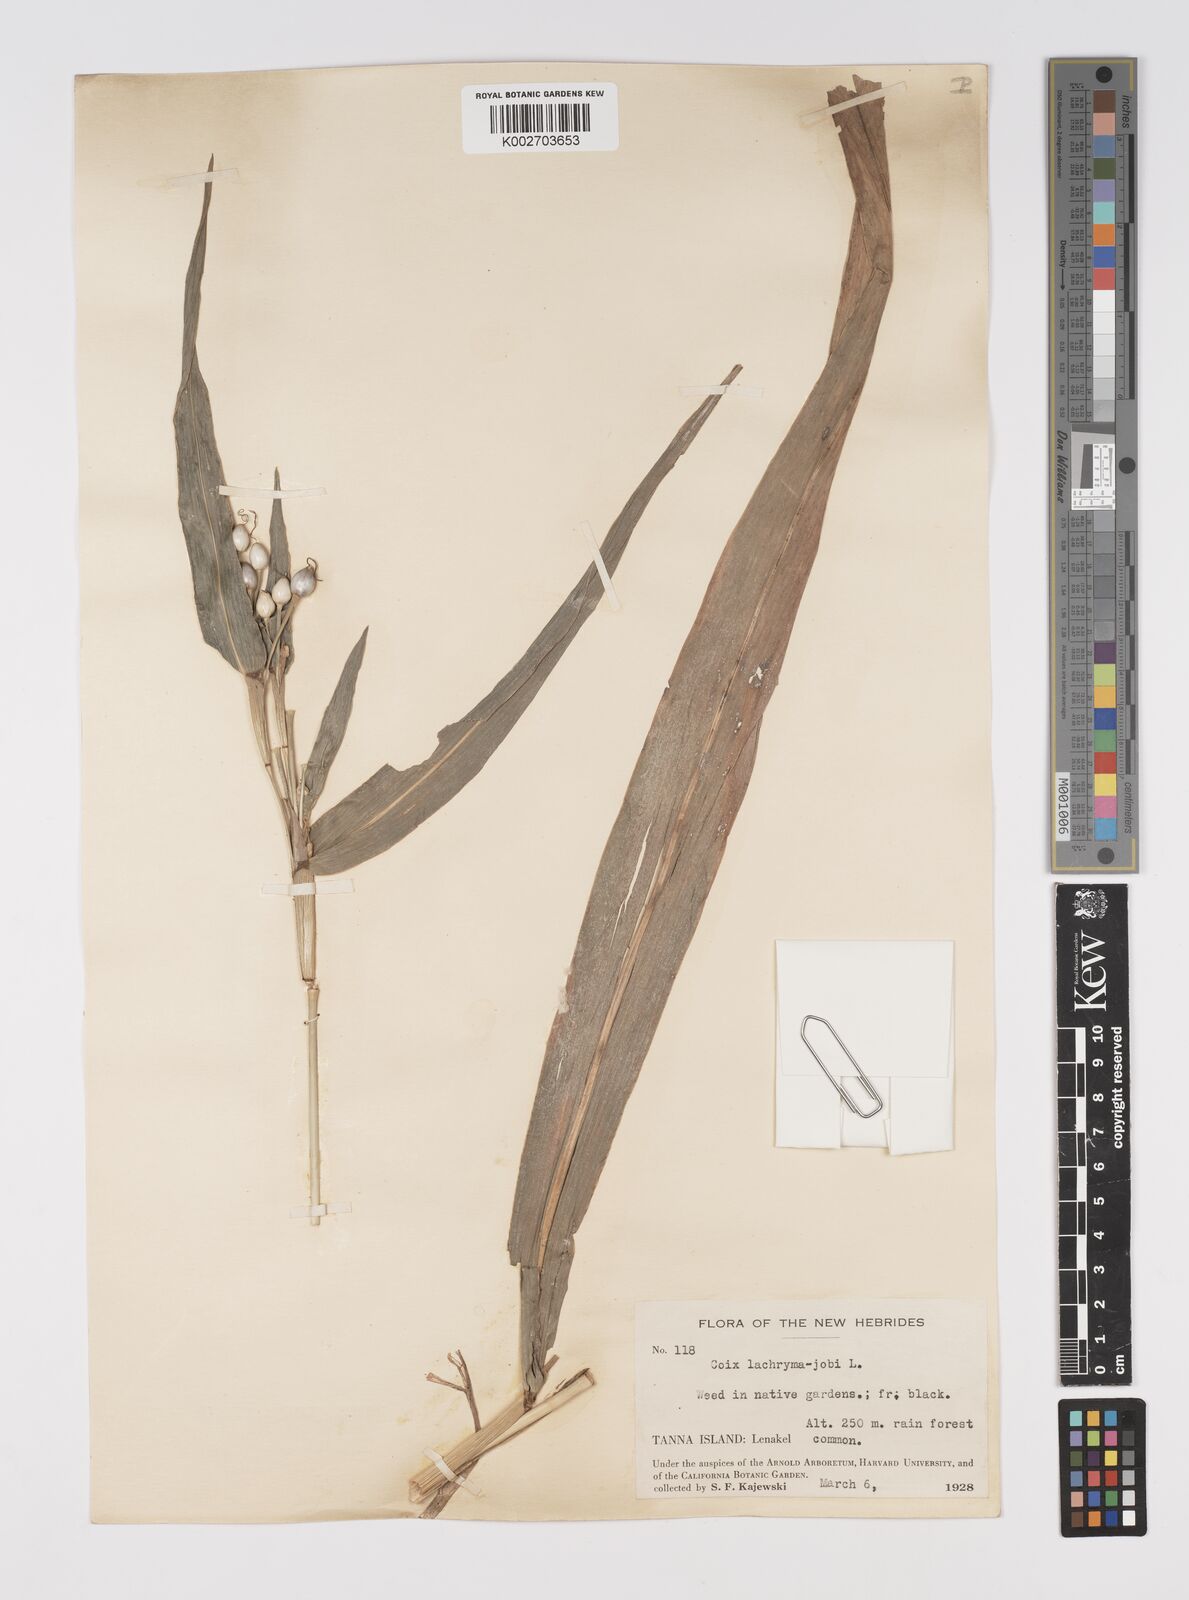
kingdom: Plantae
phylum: Tracheophyta
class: Liliopsida
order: Poales
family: Poaceae
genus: Coix
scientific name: Coix lacryma-jobi
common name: Job's tears
